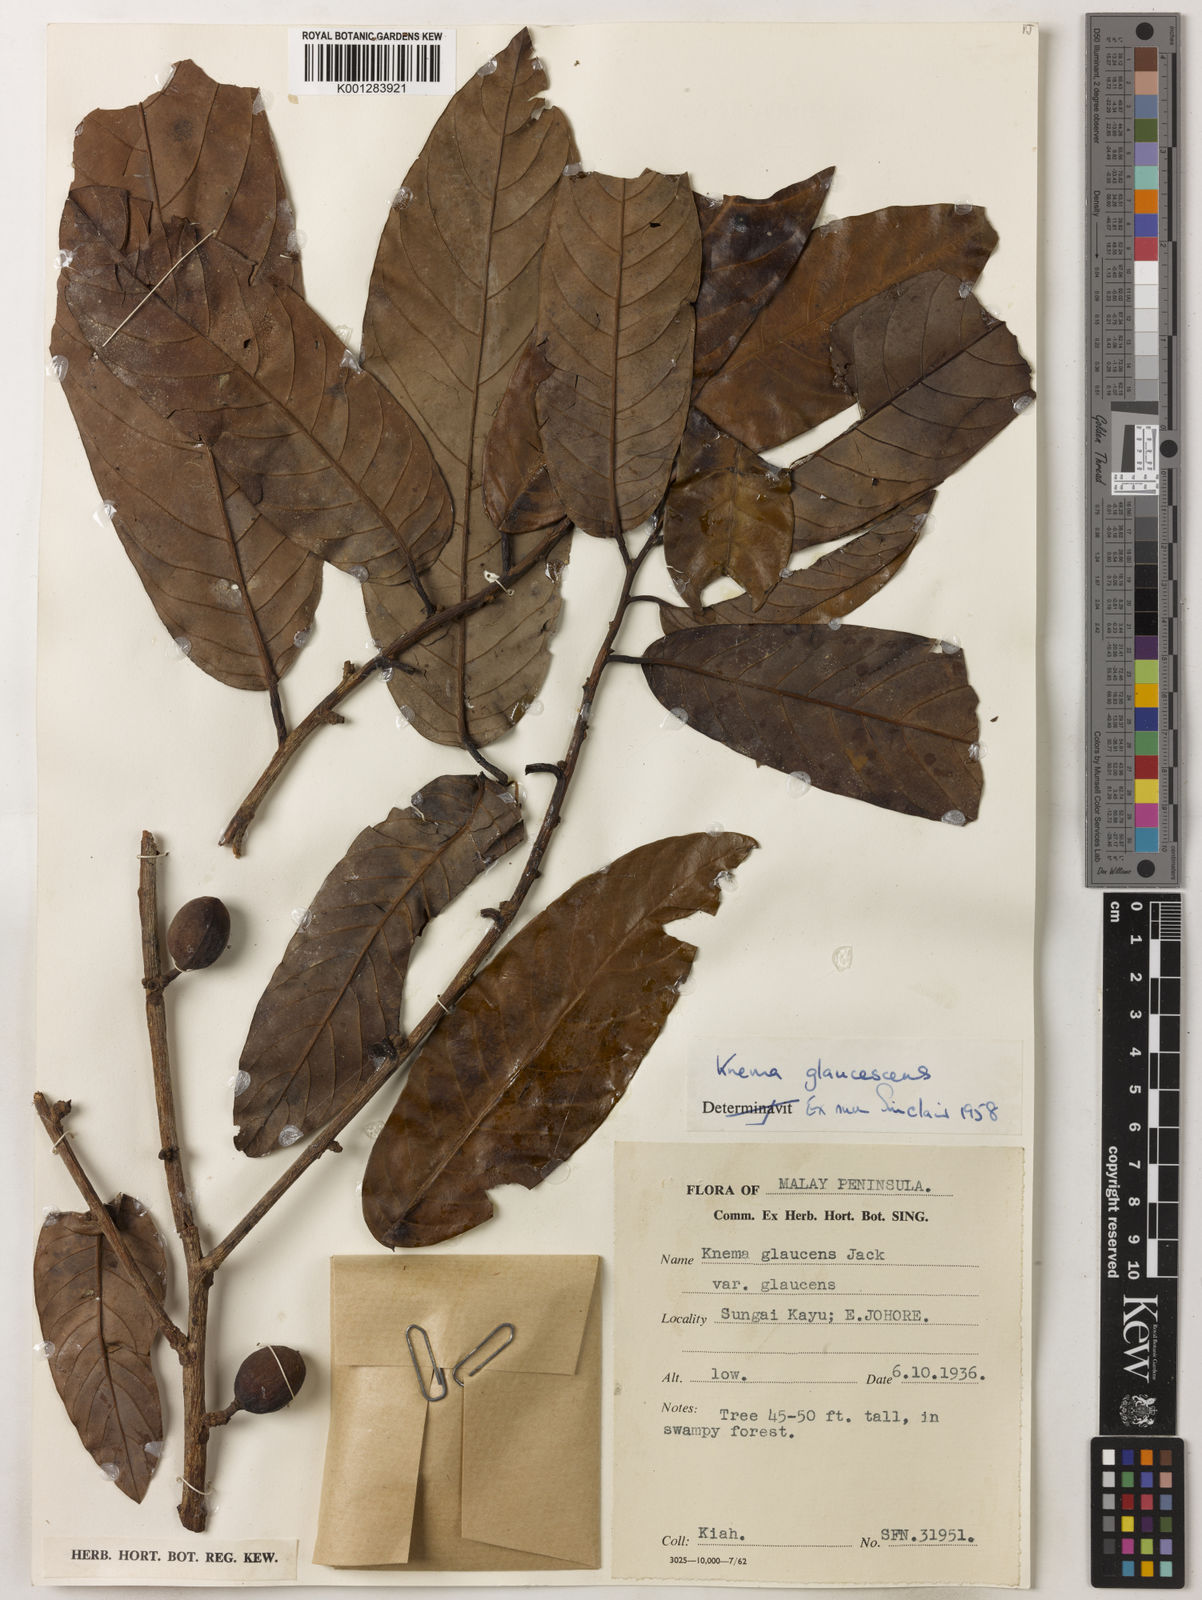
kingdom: Plantae
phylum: Tracheophyta
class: Magnoliopsida
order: Magnoliales
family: Myristicaceae
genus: Knema
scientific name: Knema
